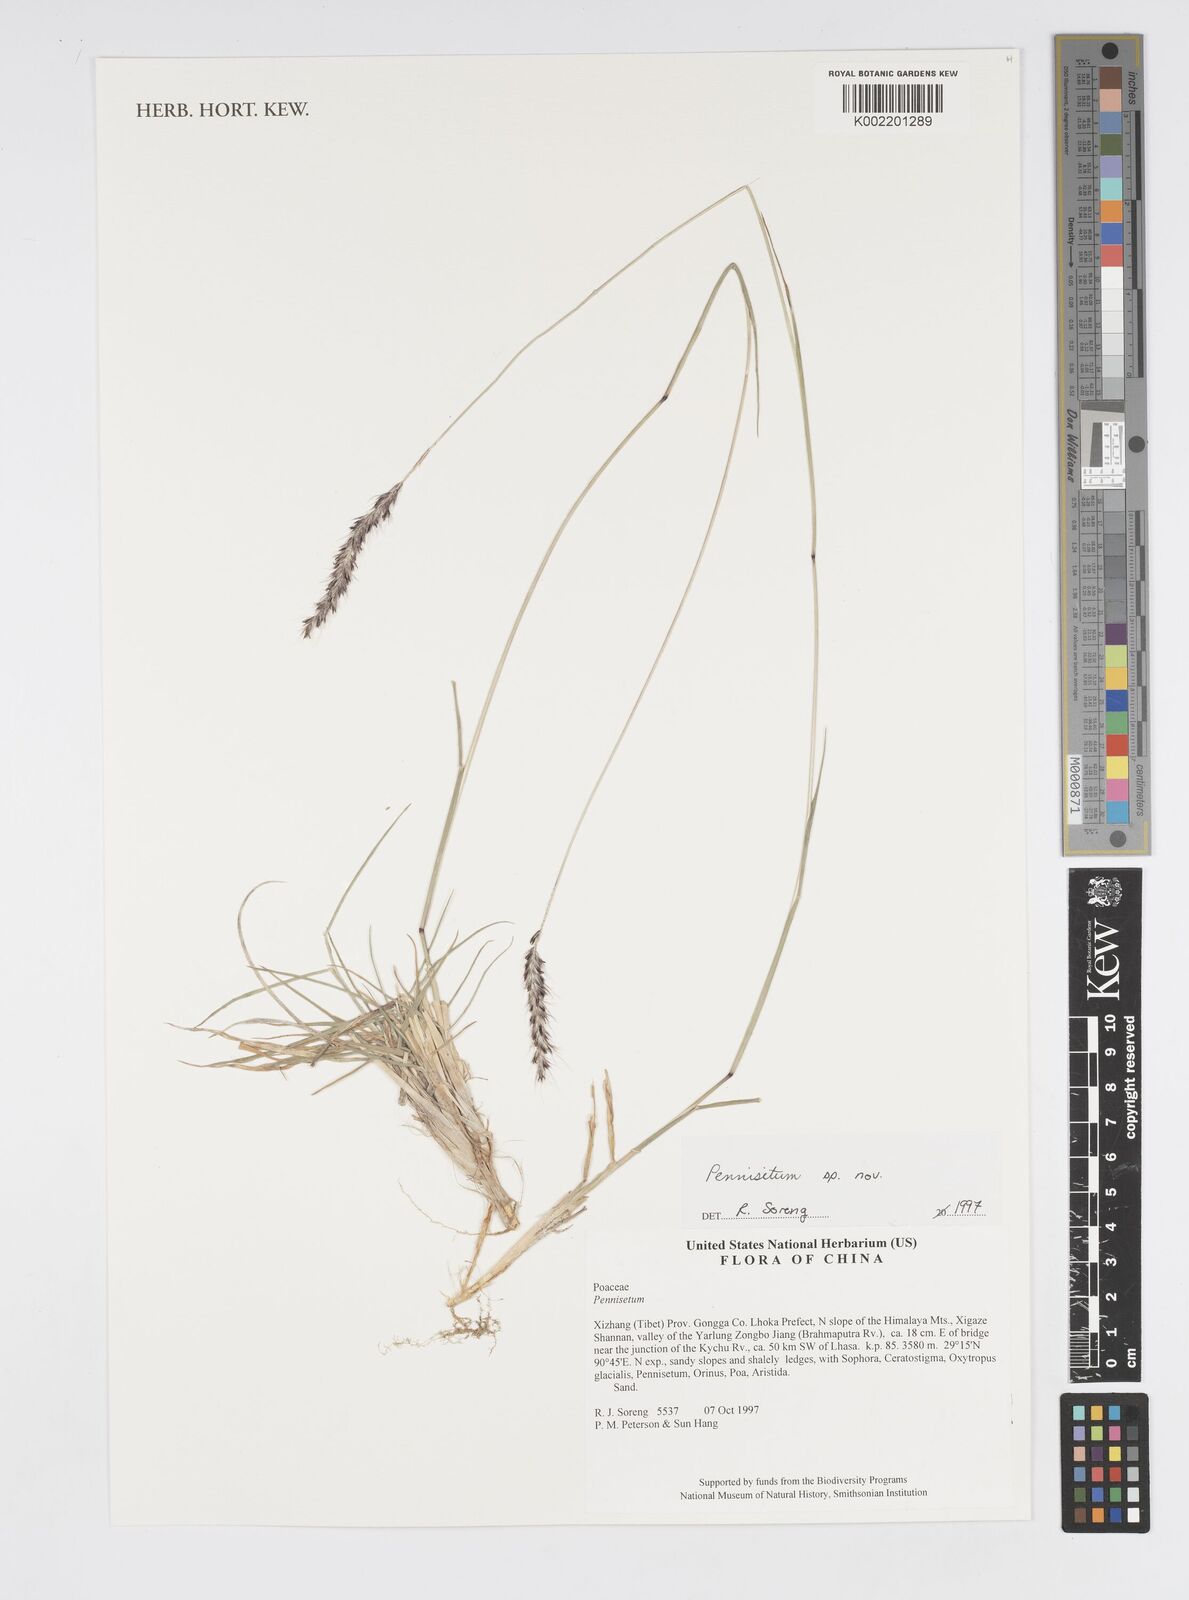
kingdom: Plantae
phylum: Tracheophyta
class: Liliopsida
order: Poales
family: Poaceae
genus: Cenchrus
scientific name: Cenchrus Pennisetum spec
